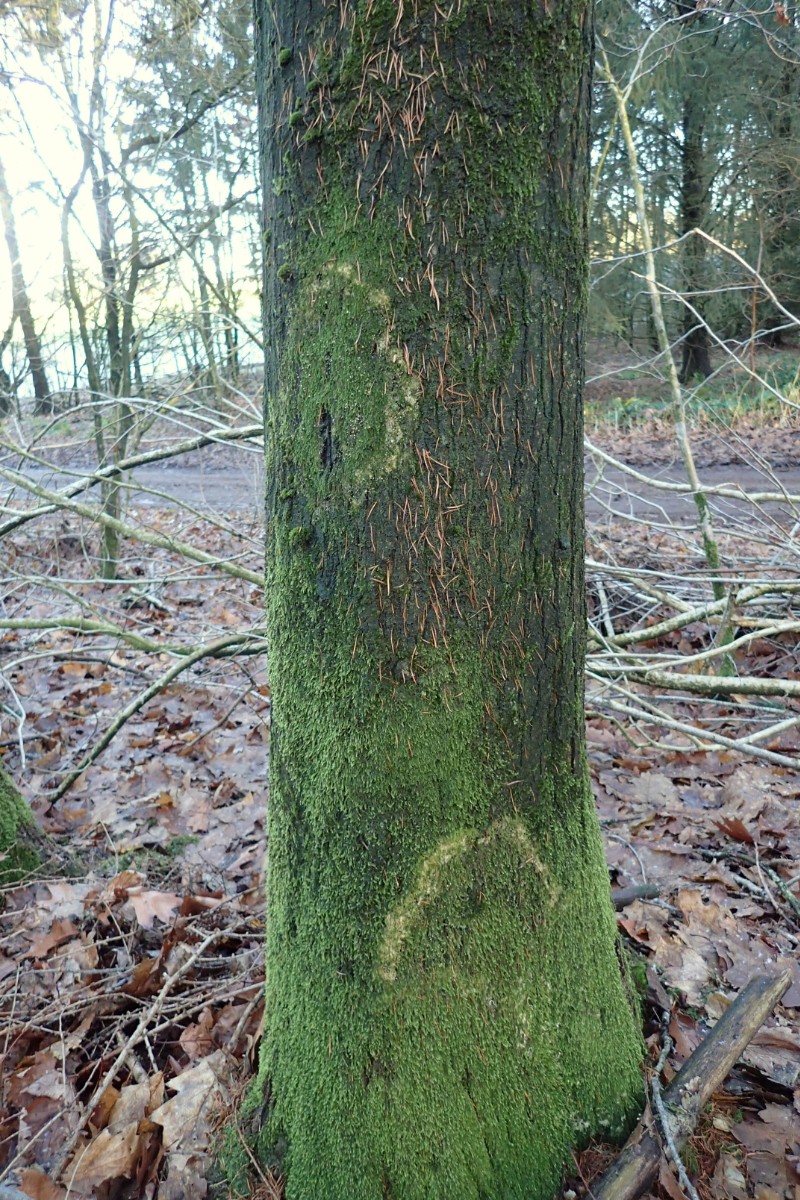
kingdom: Fungi
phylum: Basidiomycota
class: Agaricomycetes
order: Agaricales
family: Chromocyphellaceae
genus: Chromocyphella
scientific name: Chromocyphella muscicola
